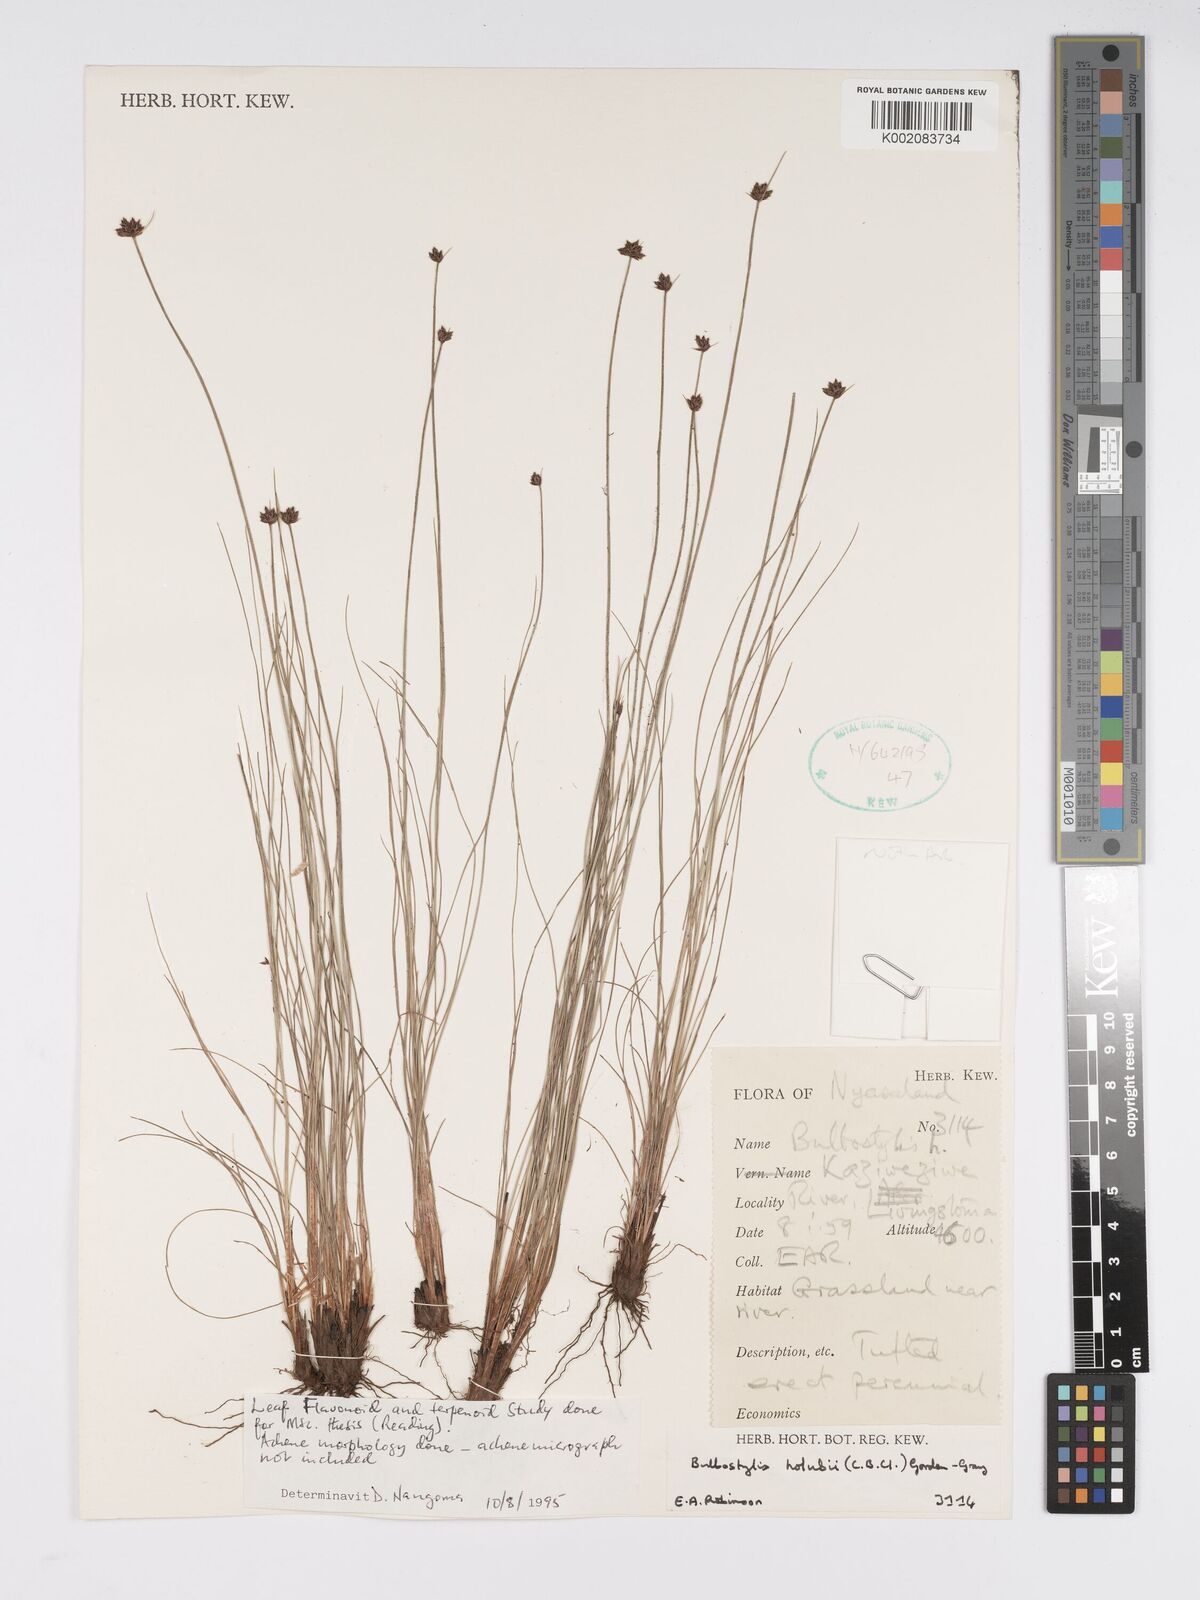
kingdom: Plantae
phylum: Tracheophyta
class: Liliopsida
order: Poales
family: Cyperaceae
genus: Bulbostylis
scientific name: Bulbostylis
